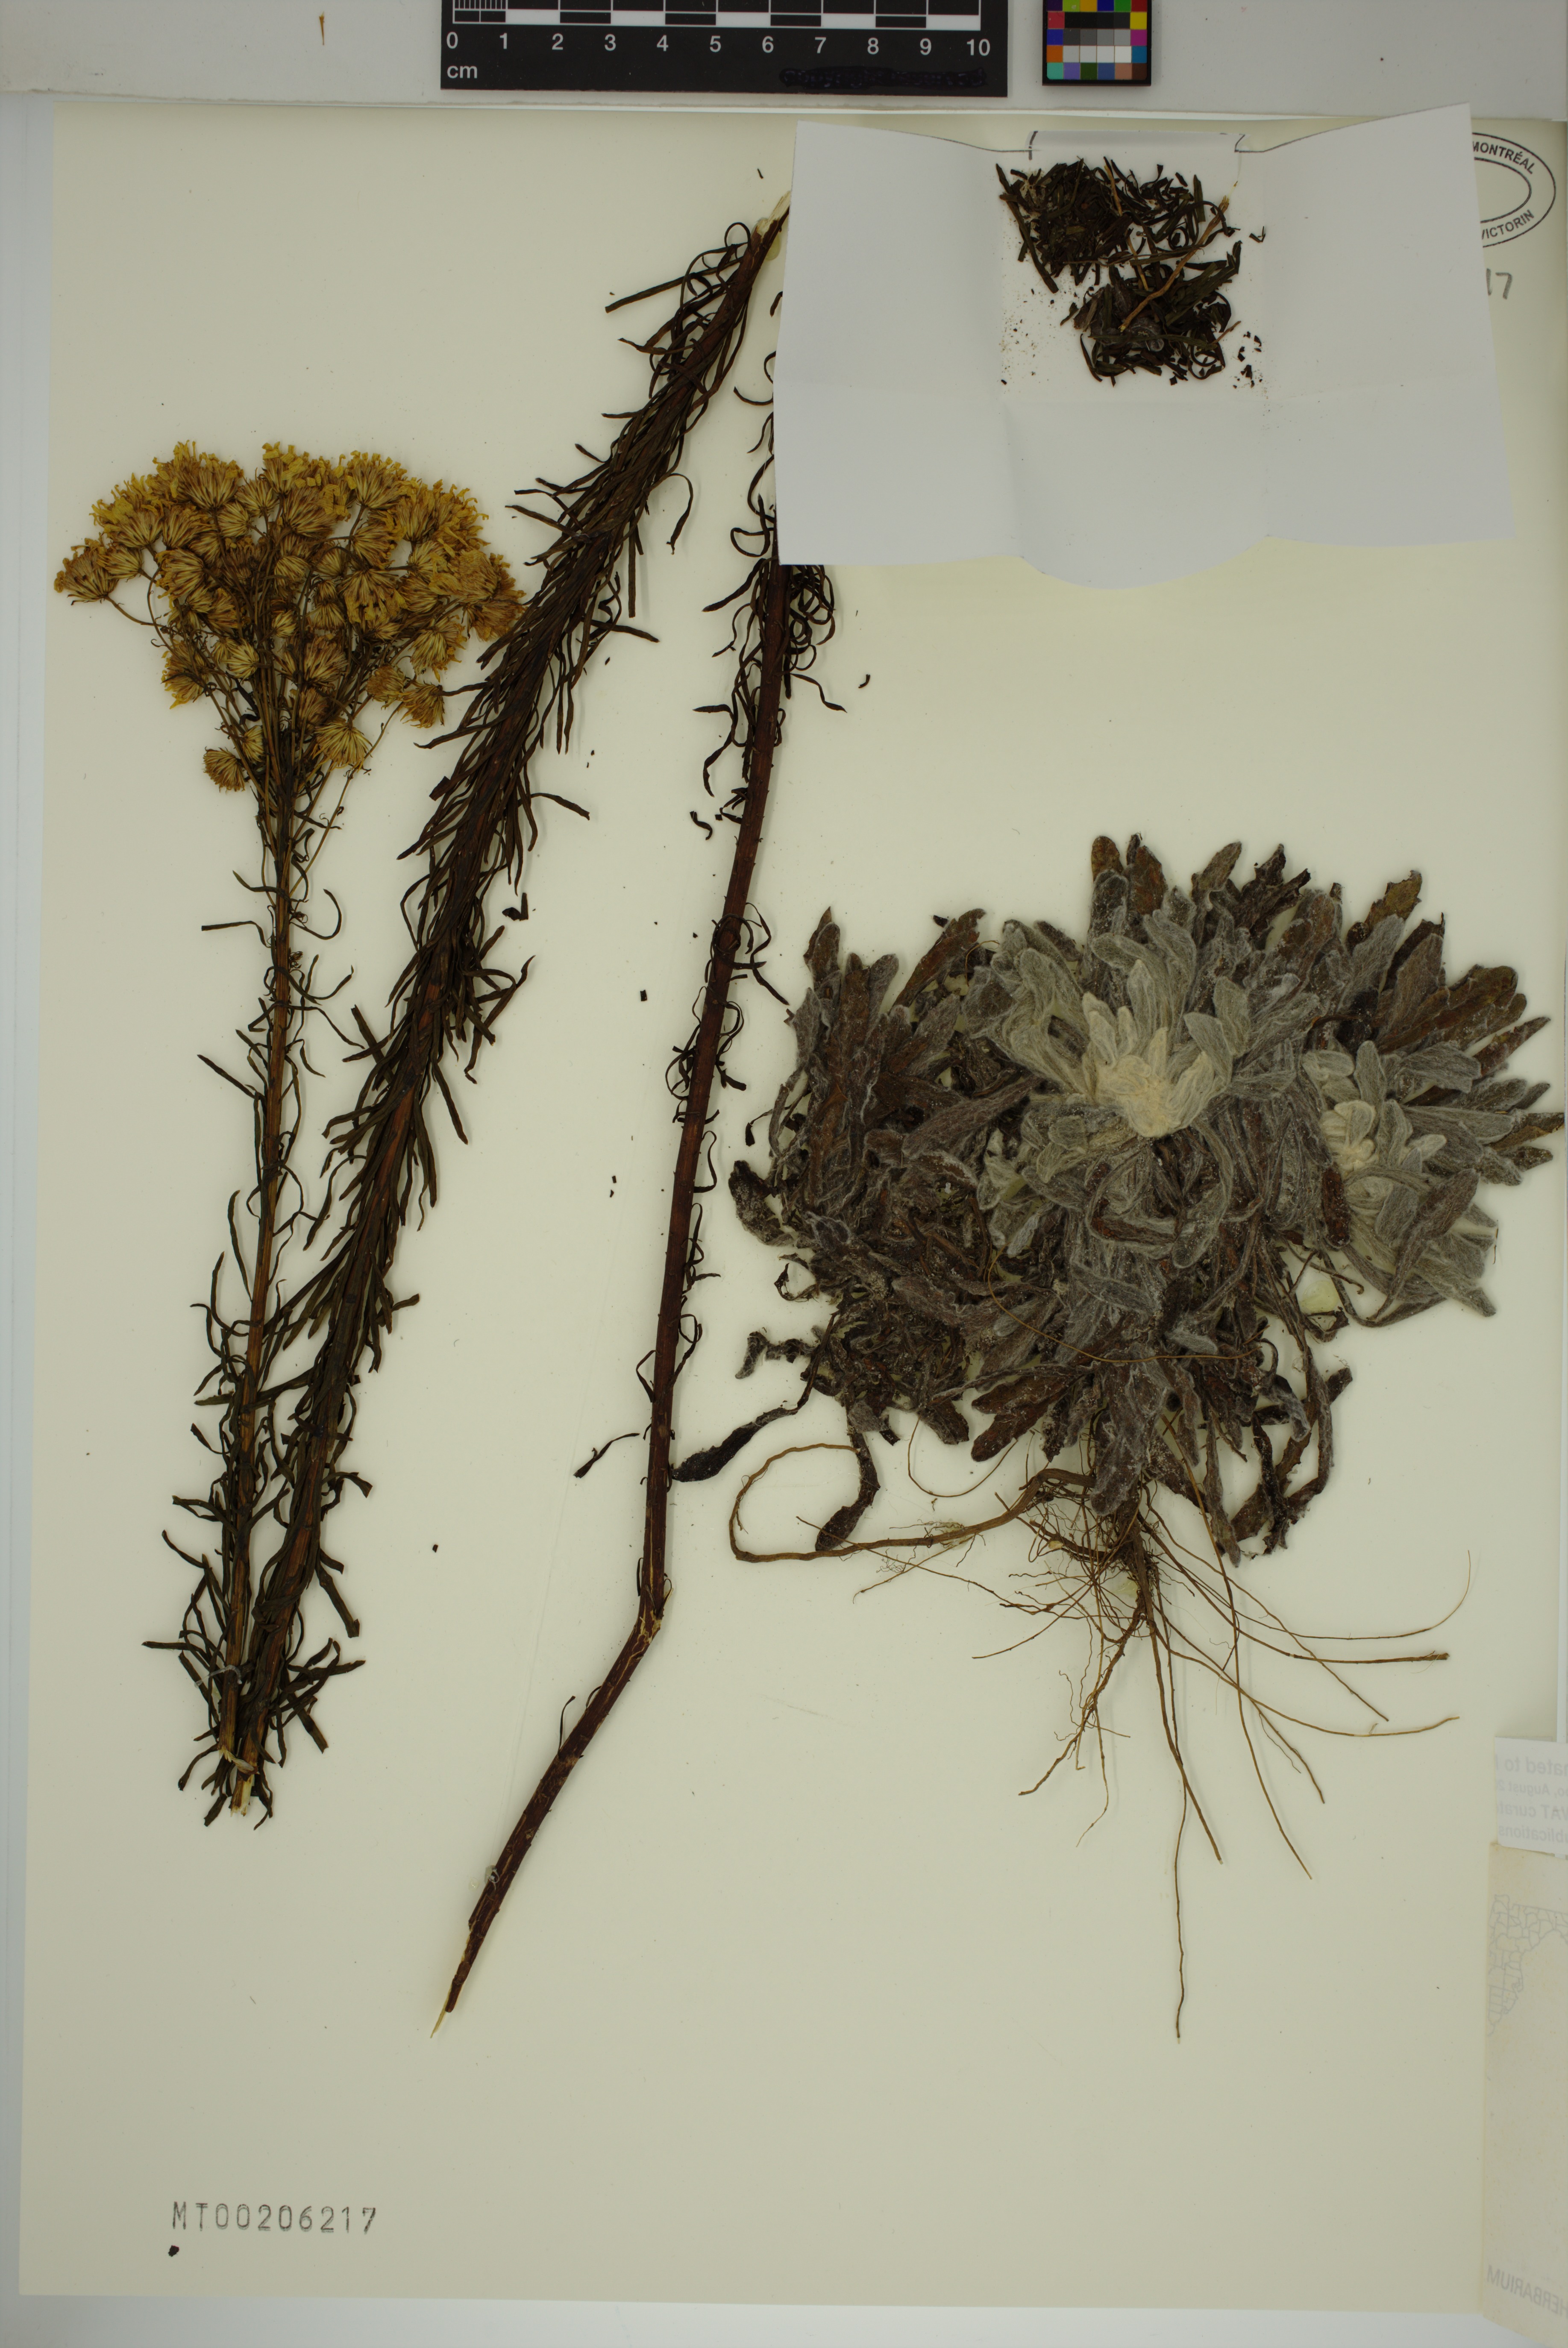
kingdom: Plantae
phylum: Tracheophyta
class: Magnoliopsida
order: Asterales
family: Asteraceae
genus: Chrysopsis
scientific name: Chrysopsis linearifolia
